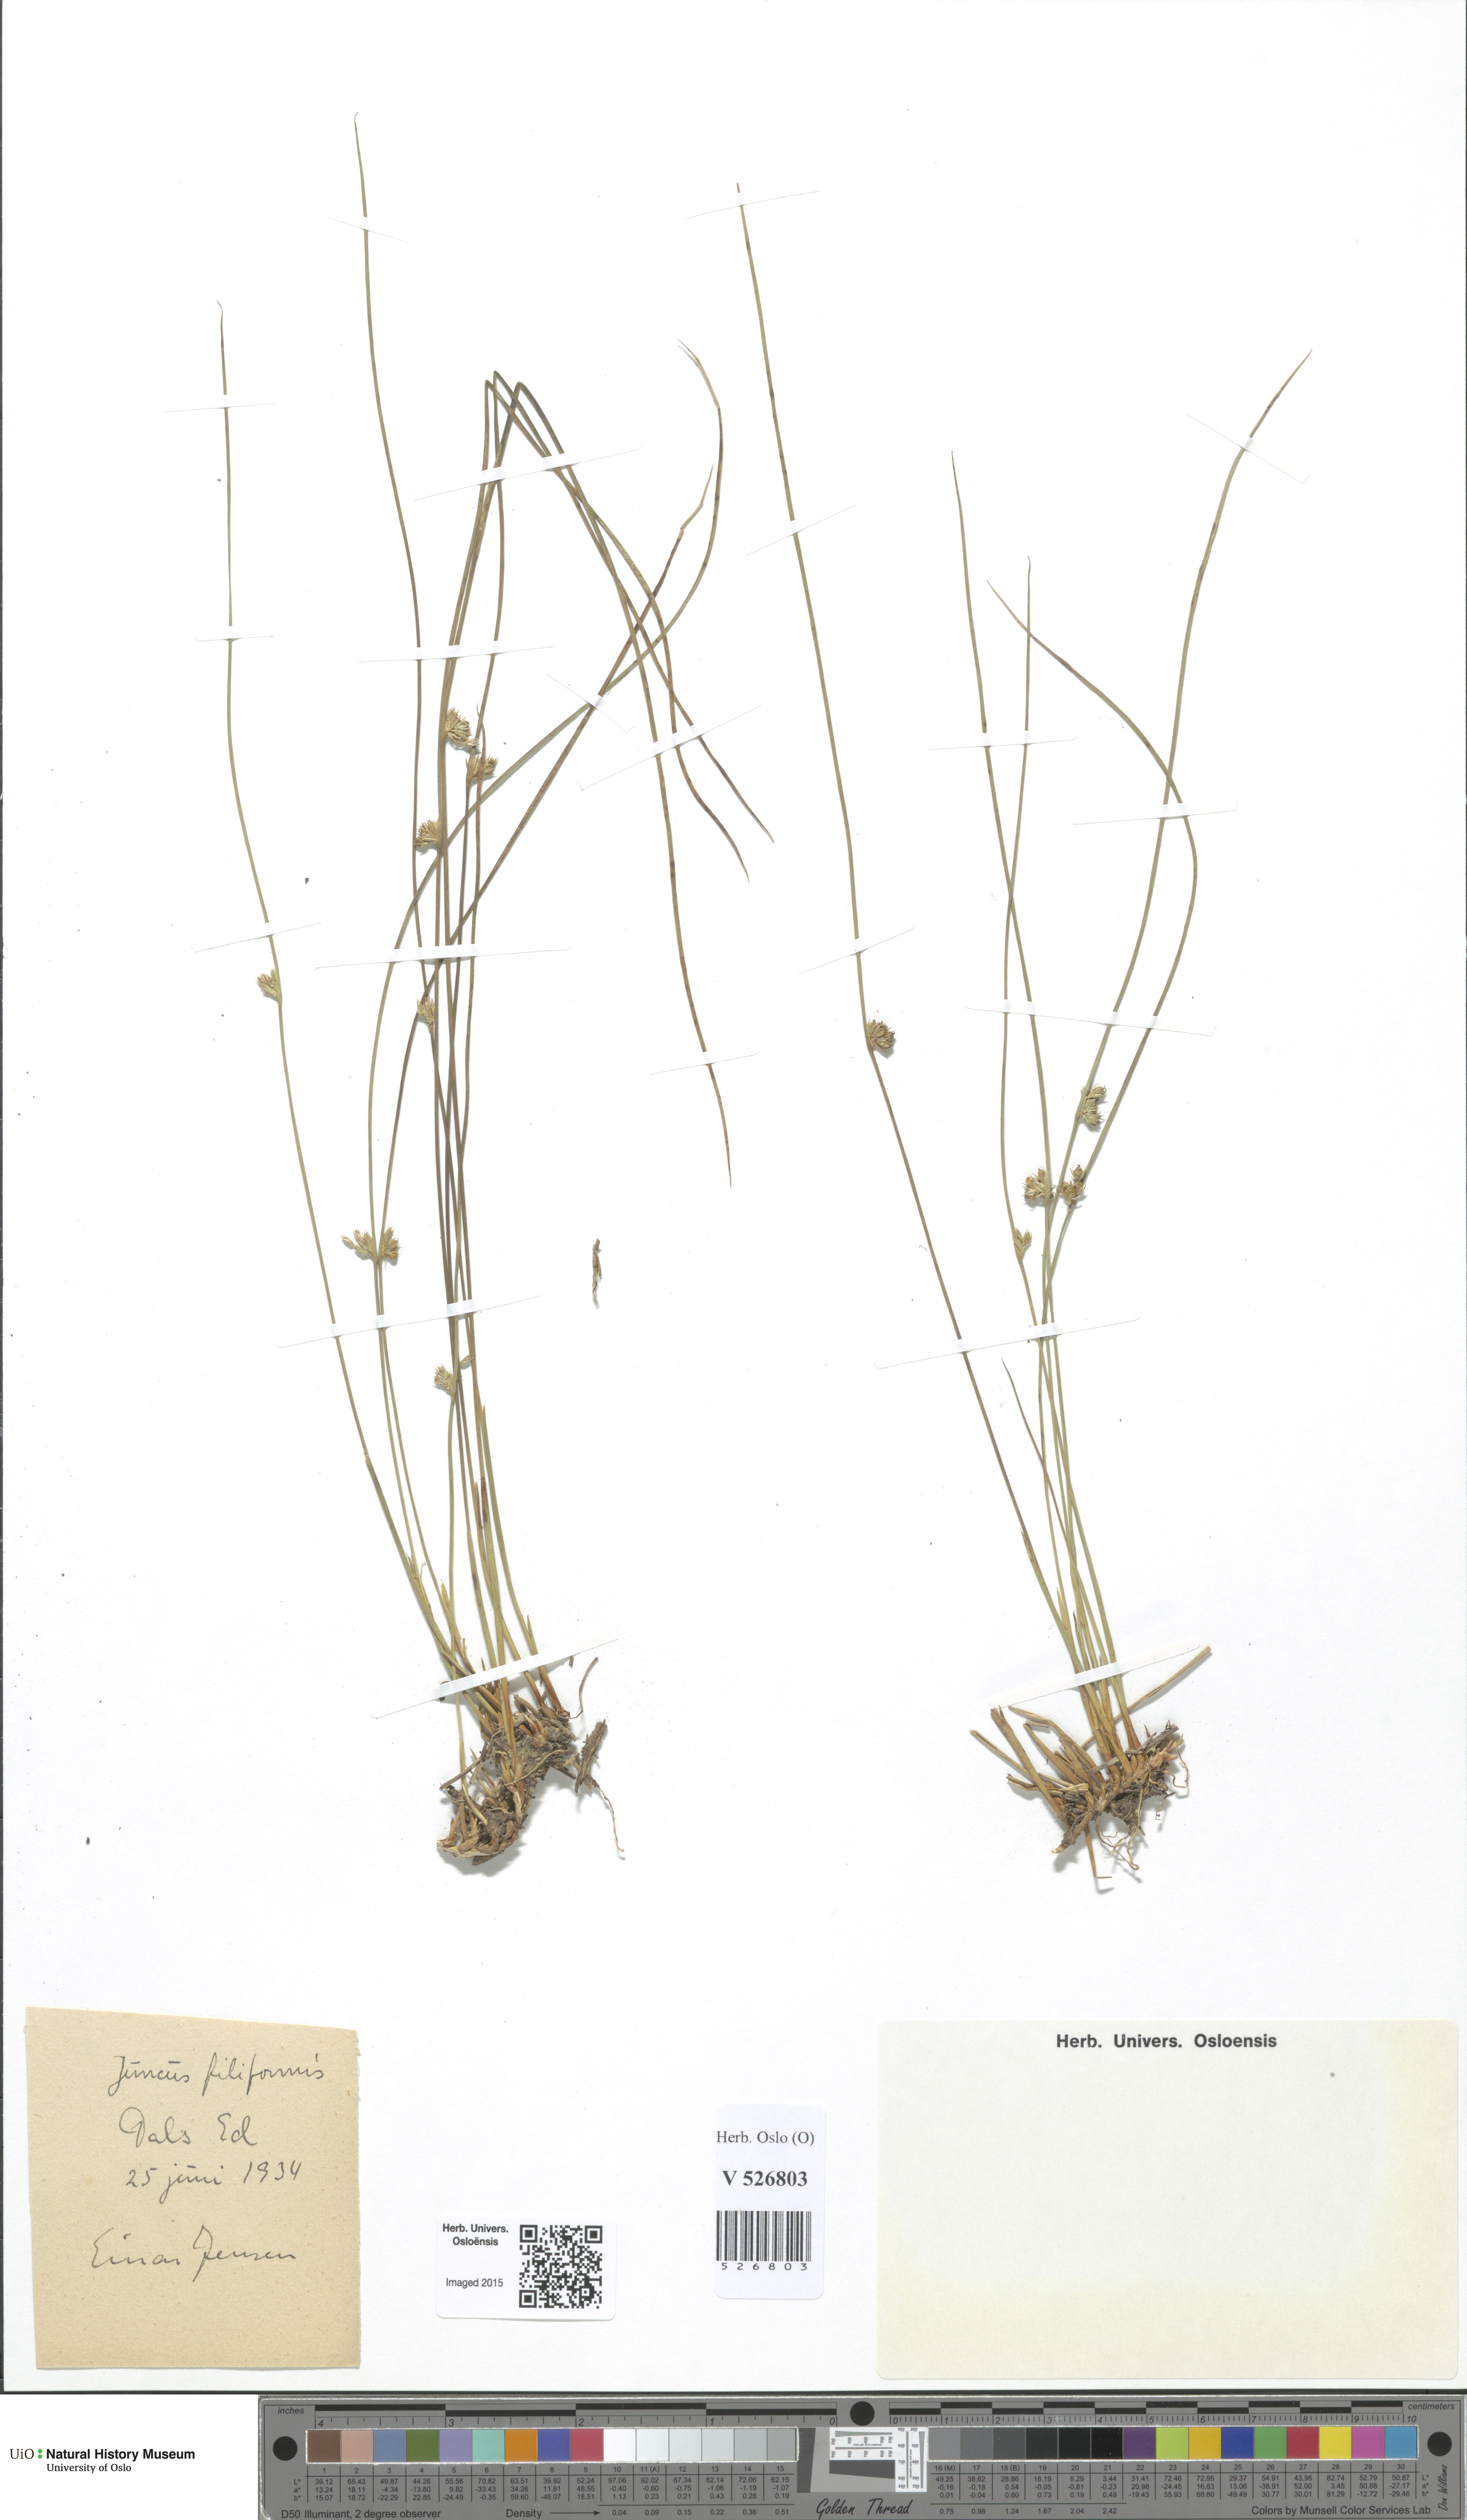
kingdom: Plantae
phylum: Tracheophyta
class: Liliopsida
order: Poales
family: Juncaceae
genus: Juncus
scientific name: Juncus filiformis
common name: Thread rush
